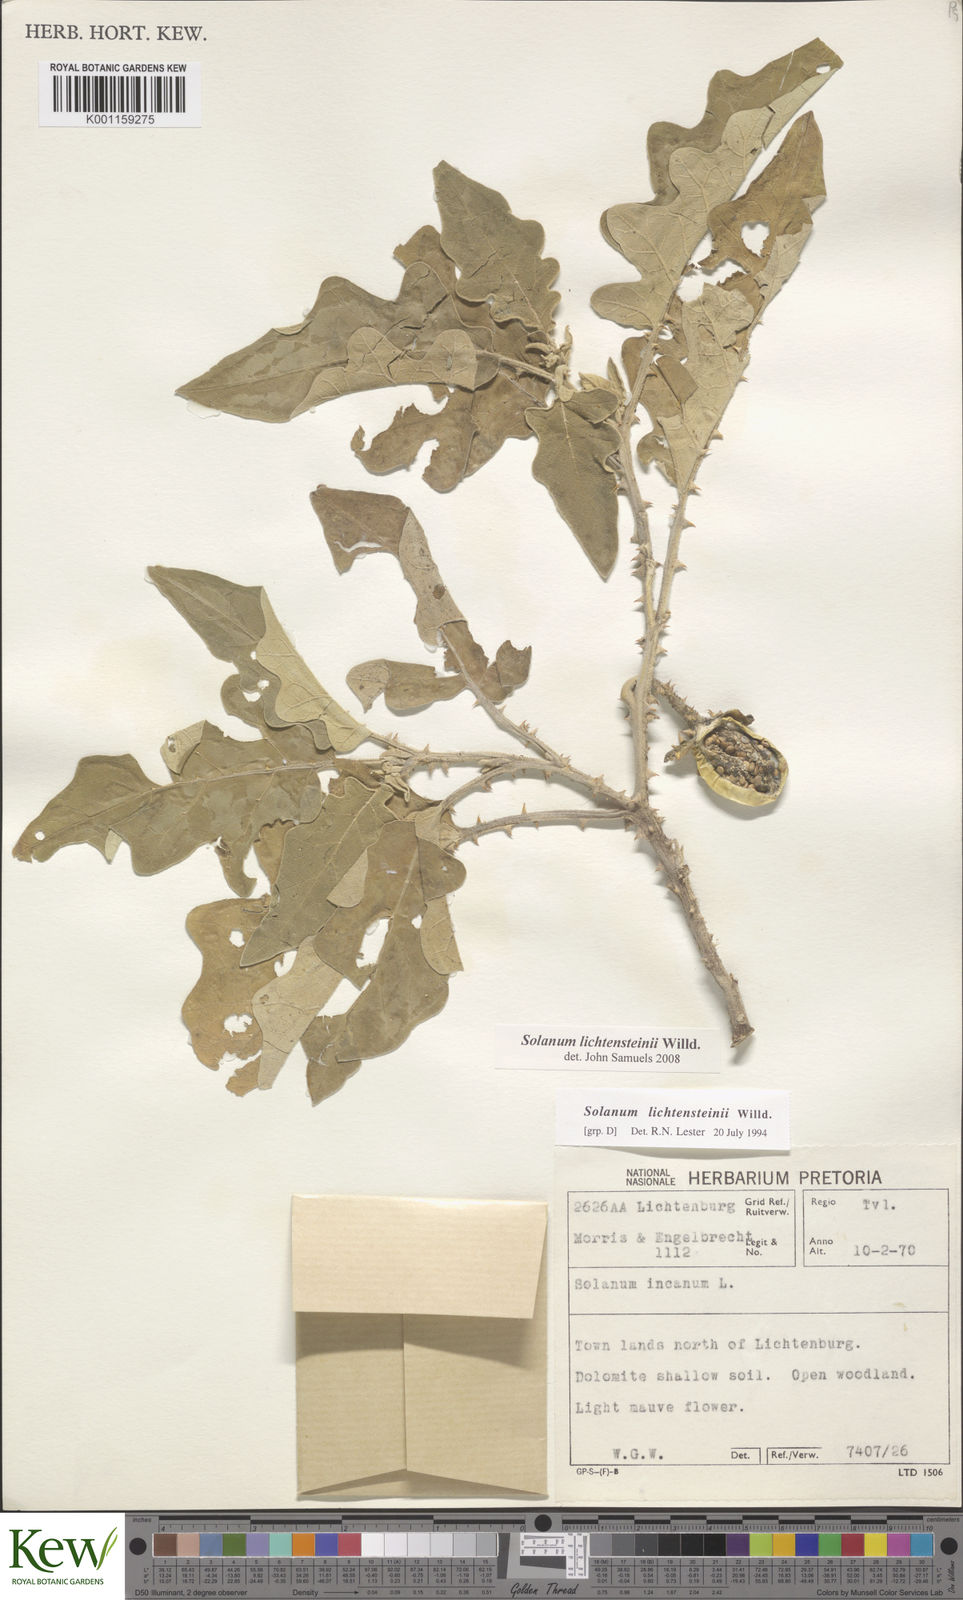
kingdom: Plantae
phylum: Tracheophyta
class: Magnoliopsida
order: Solanales
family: Solanaceae
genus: Solanum
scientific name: Solanum lichtensteinii
